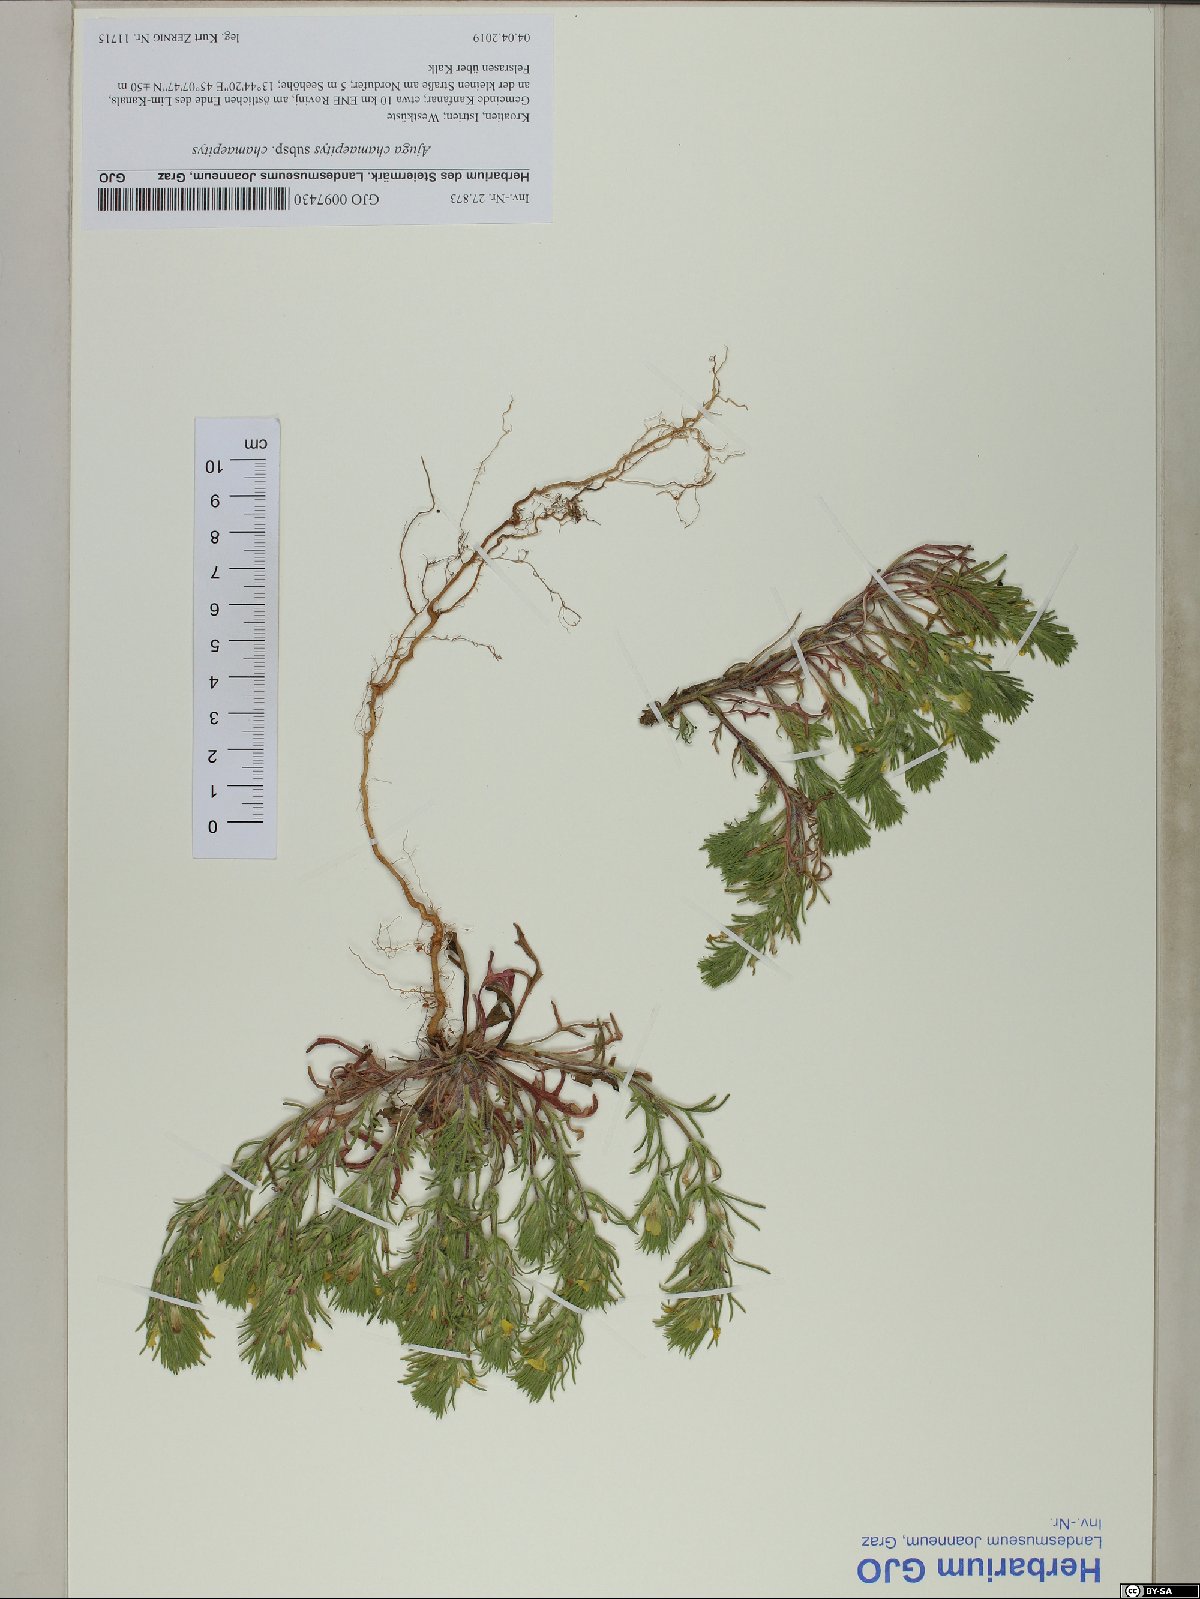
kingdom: Plantae
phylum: Tracheophyta
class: Magnoliopsida
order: Lamiales
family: Lamiaceae
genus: Ajuga
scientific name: Ajuga chamaepitys
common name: Ground-pine
